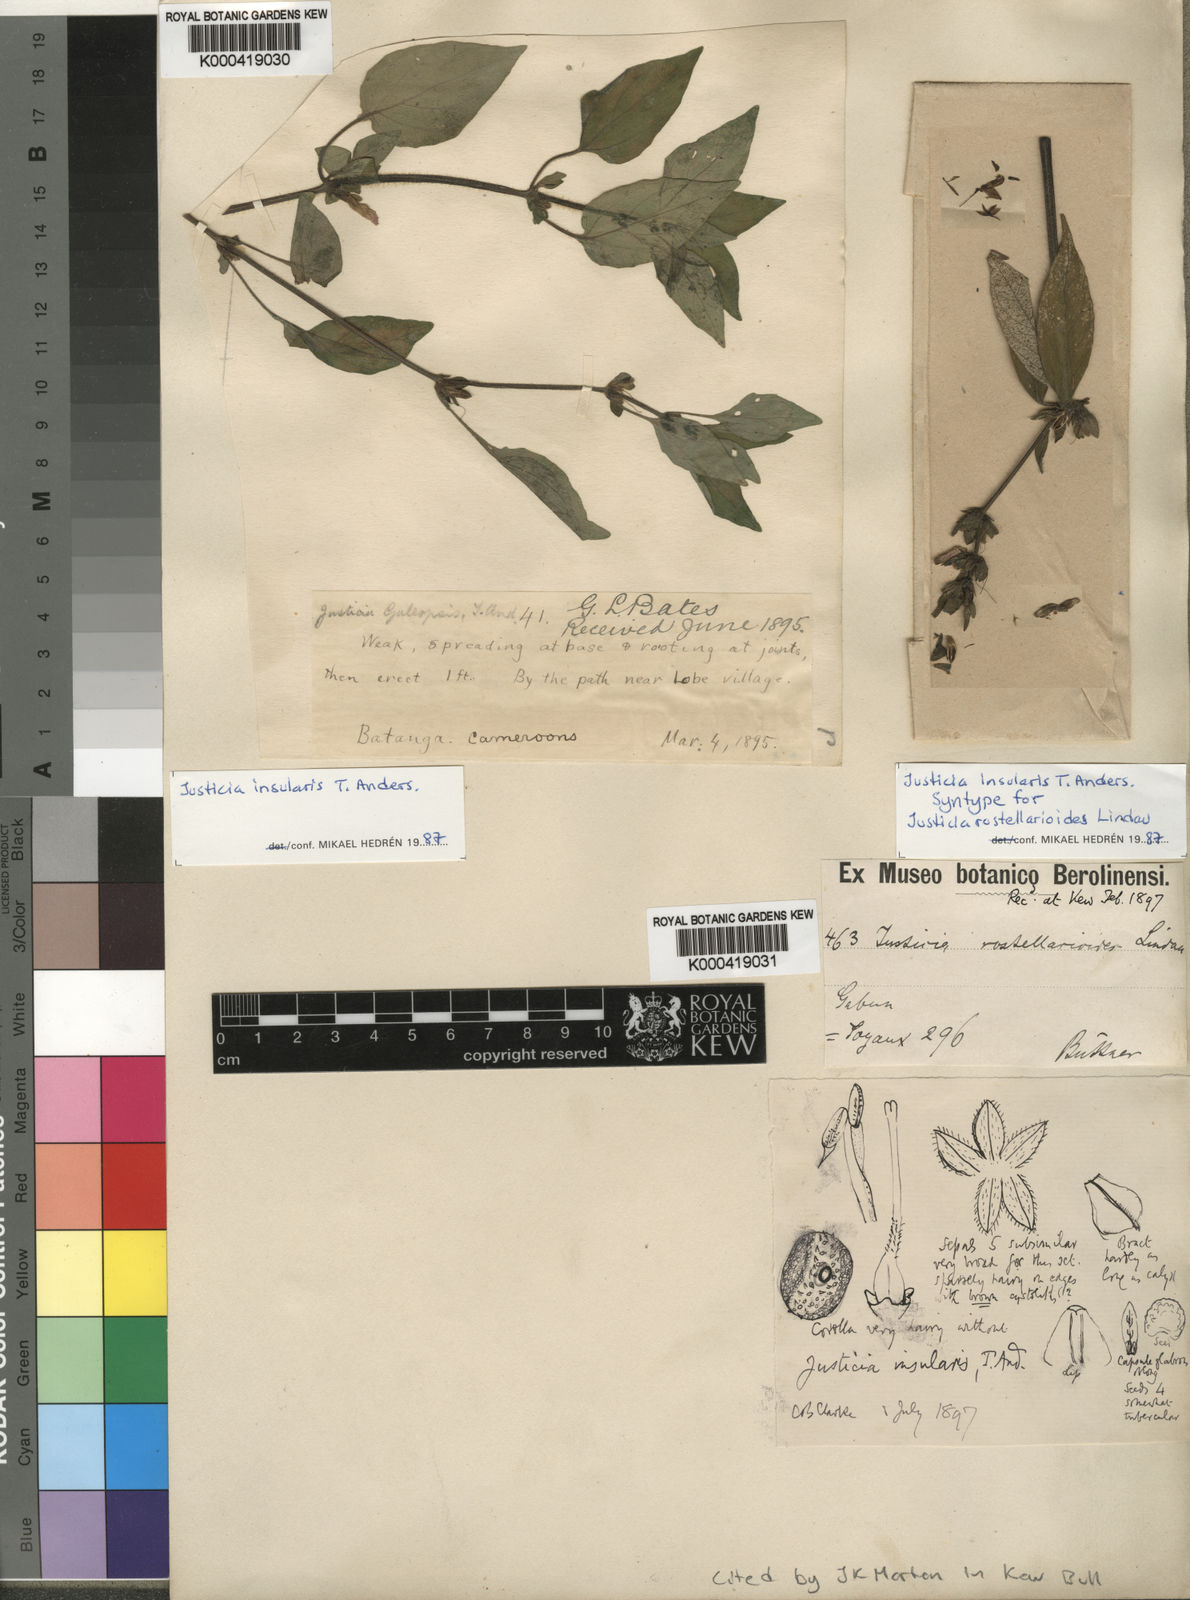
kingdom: Plantae
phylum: Tracheophyta
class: Magnoliopsida
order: Lamiales
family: Acanthaceae
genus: Justicia
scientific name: Justicia insularis
